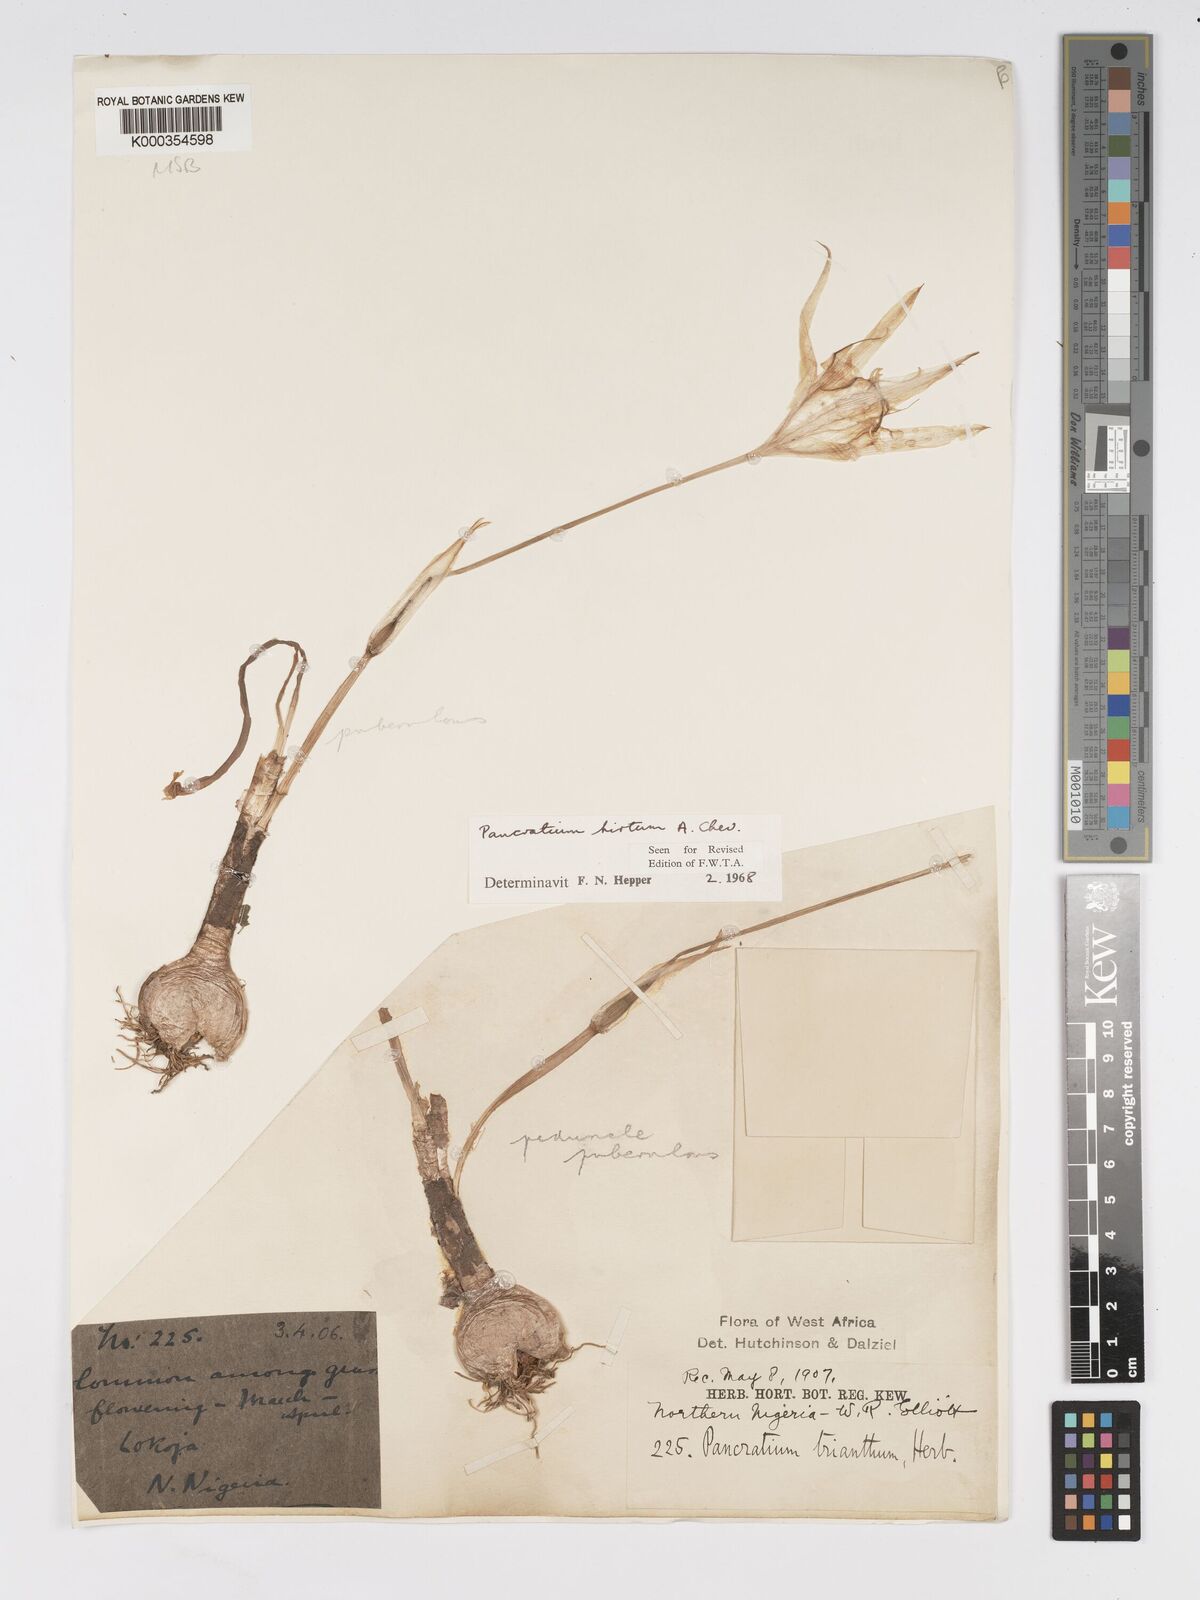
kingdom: Plantae
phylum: Tracheophyta
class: Liliopsida
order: Asparagales
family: Amaryllidaceae
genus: Pancratium
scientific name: Pancratium tenuifolium
